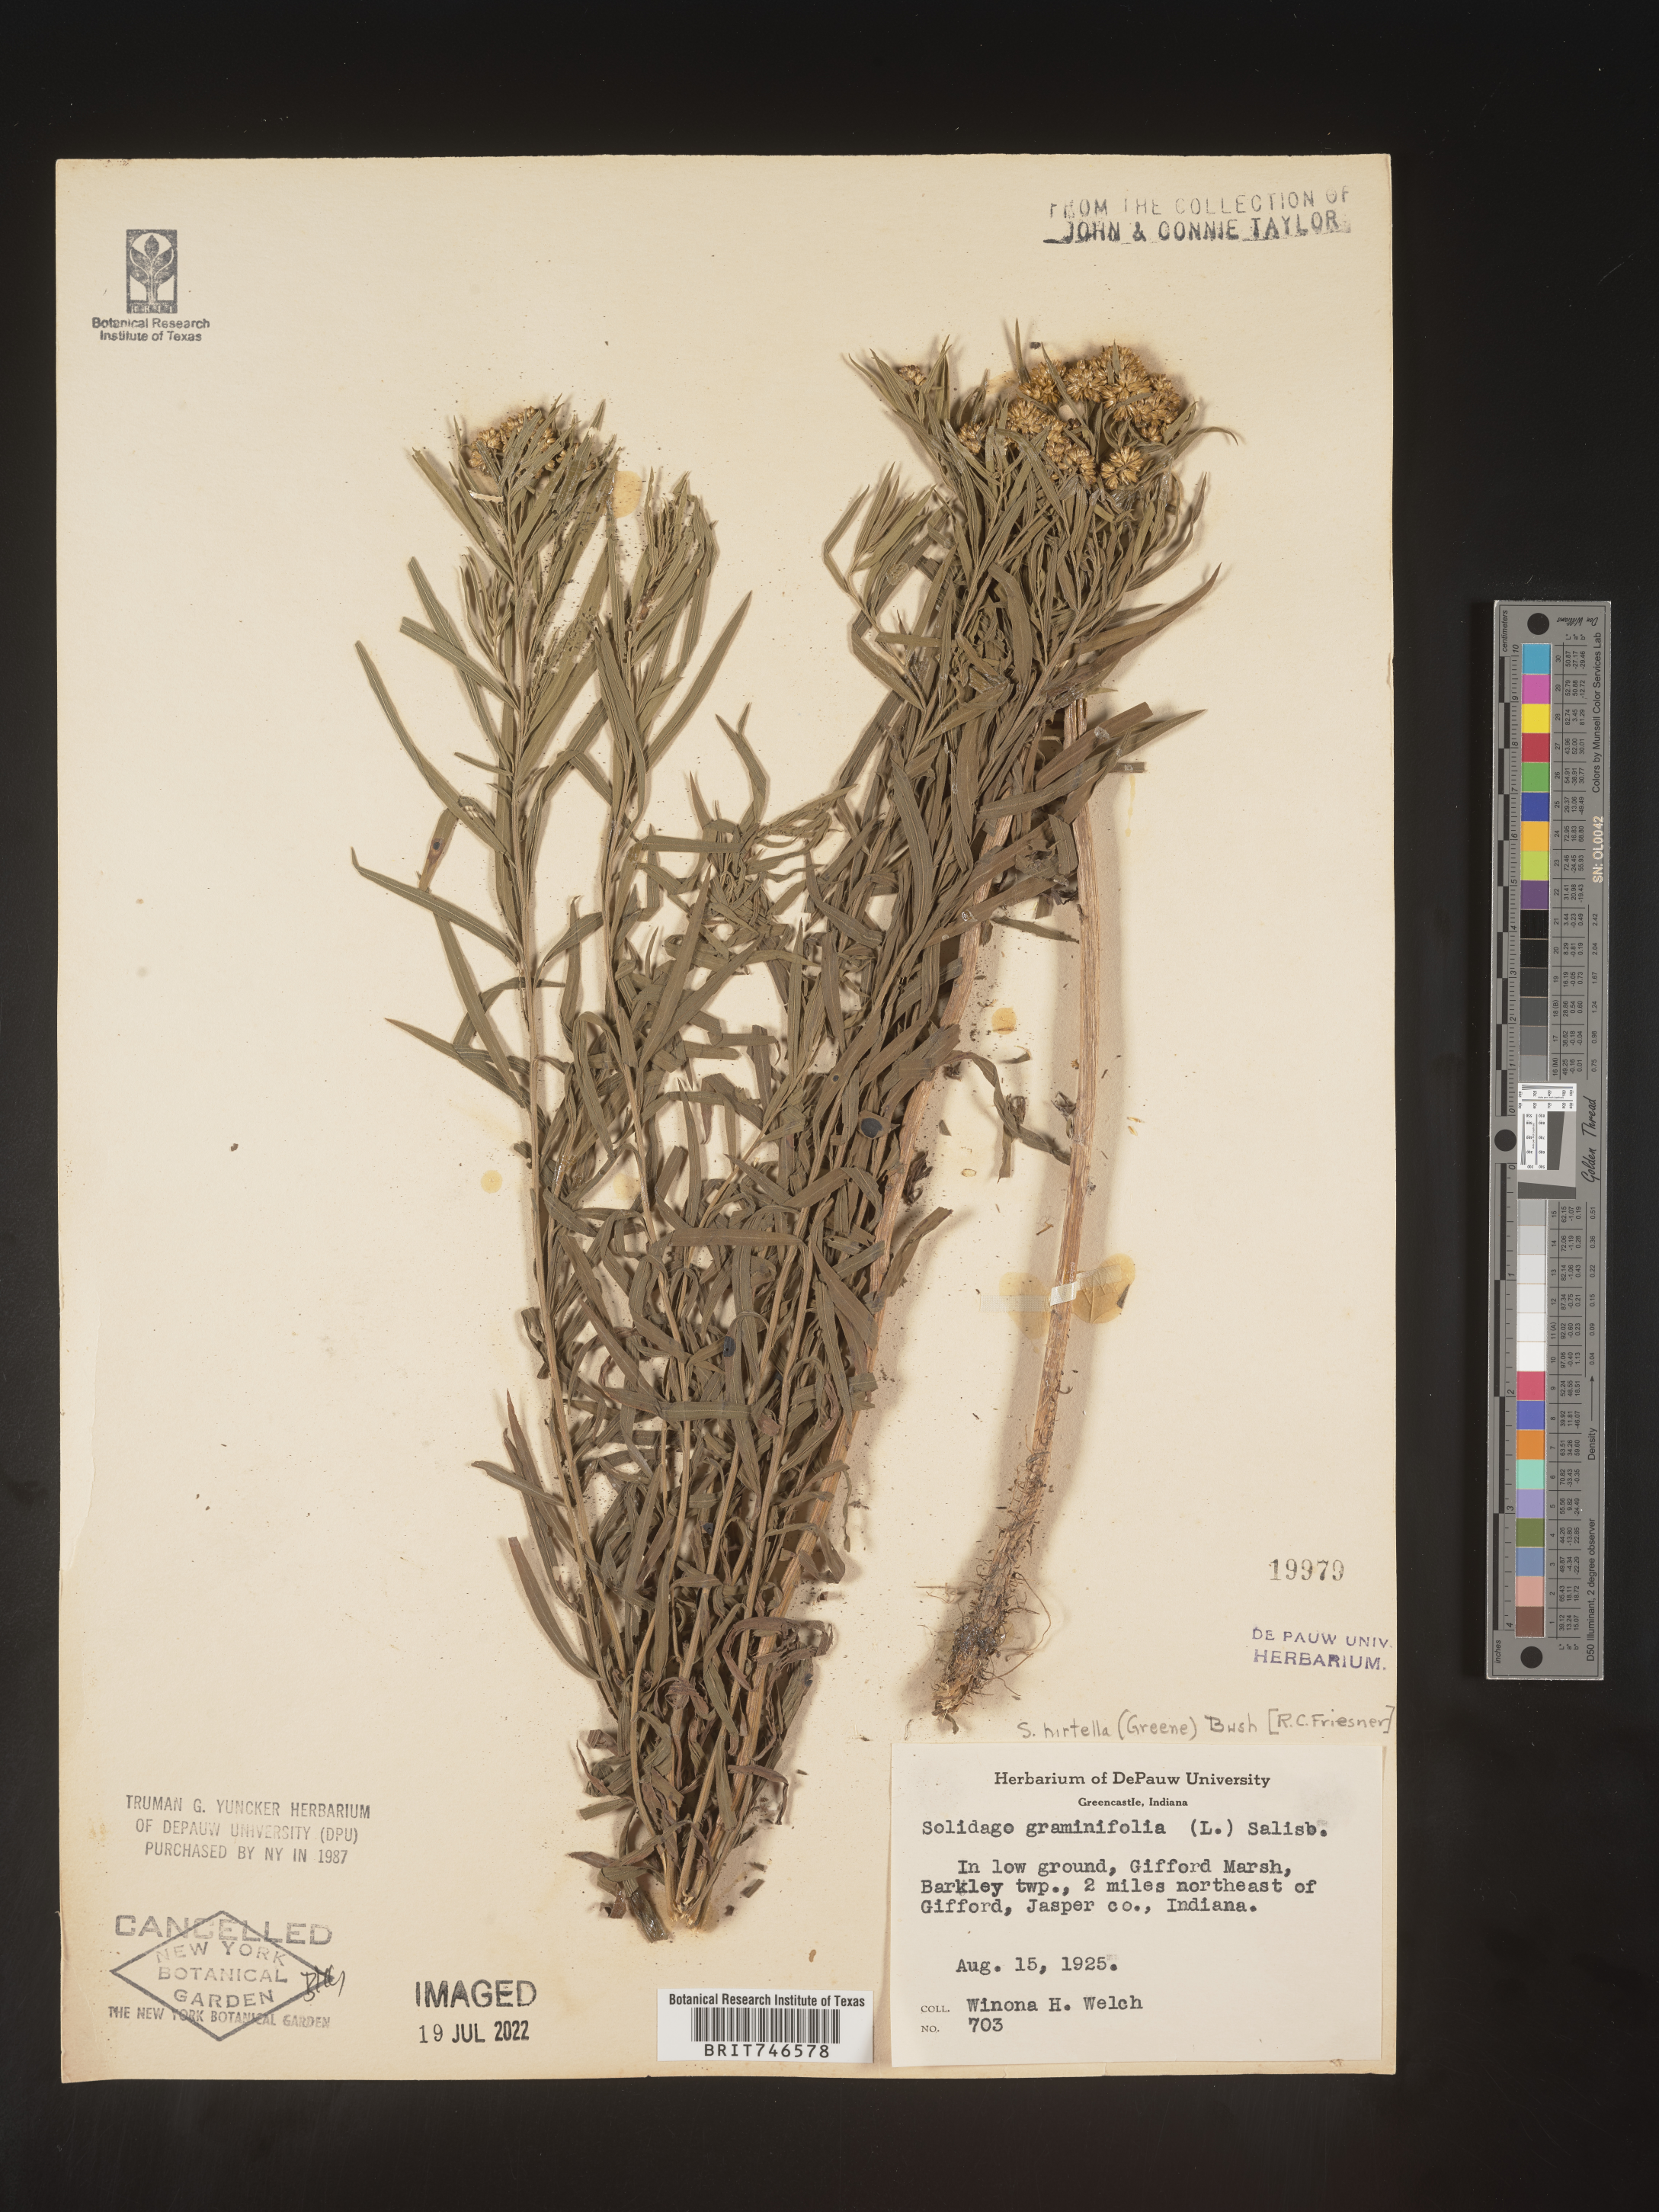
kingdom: Plantae
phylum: Tracheophyta
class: Magnoliopsida
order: Asterales
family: Asteraceae
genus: Euthamia
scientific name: Euthamia graminifolia
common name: Common goldentop
